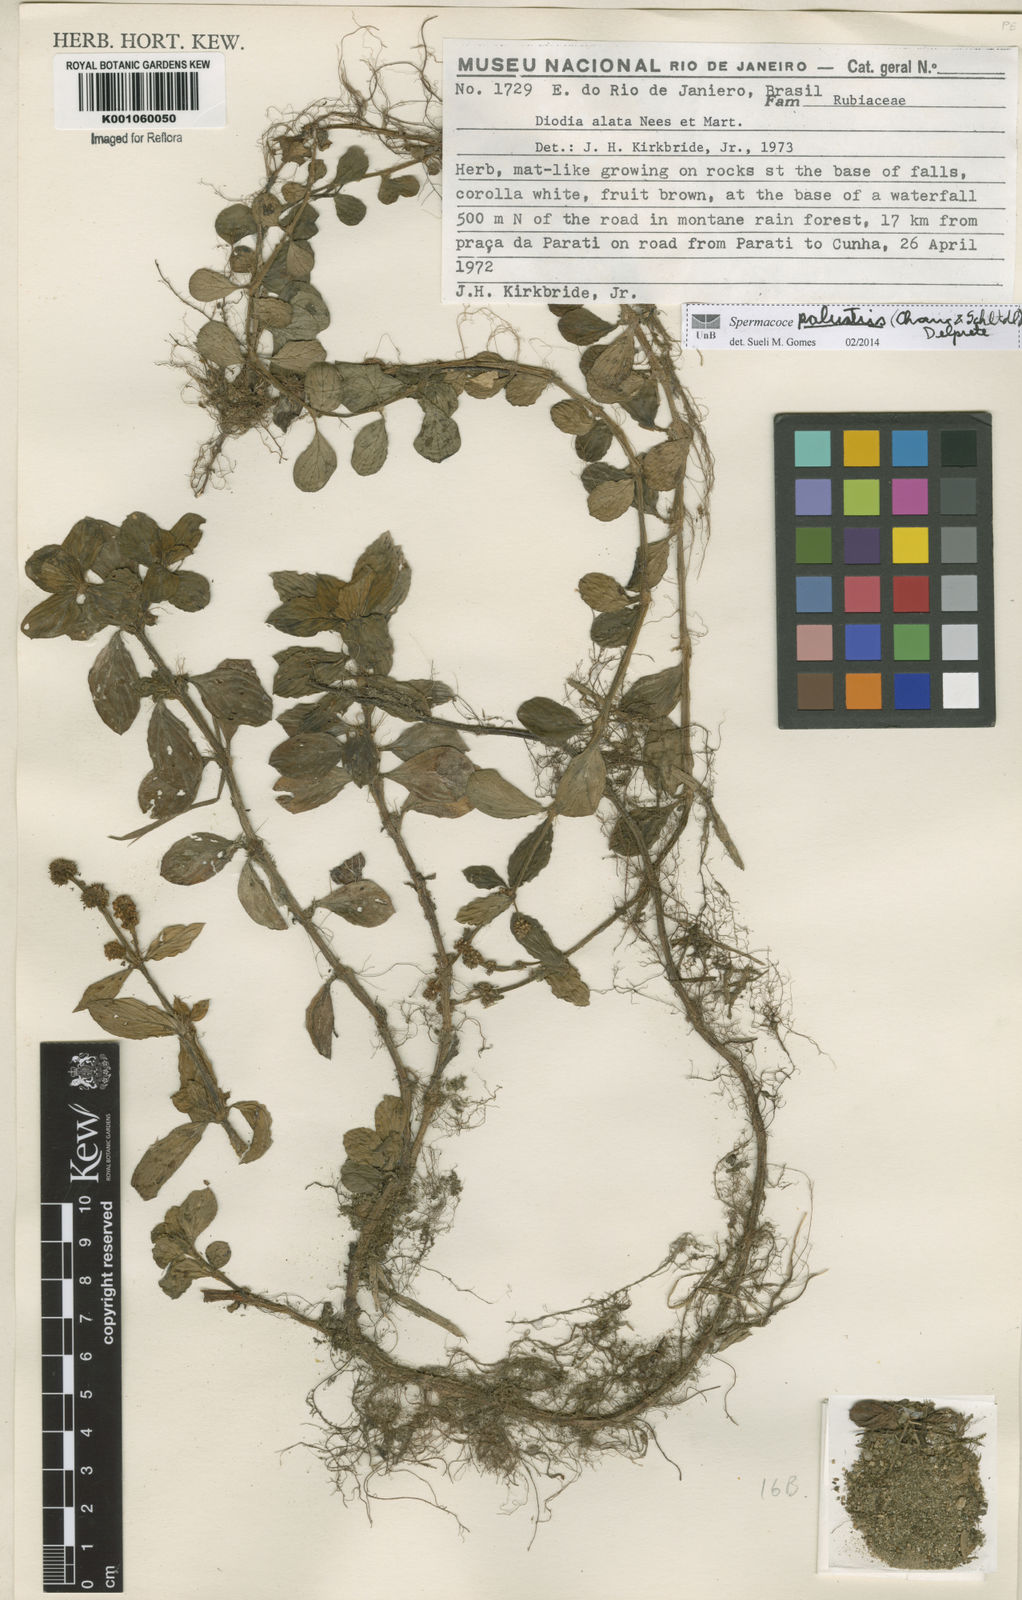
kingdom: Plantae
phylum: Tracheophyta
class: Magnoliopsida
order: Gentianales
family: Rubiaceae
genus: Galianthe
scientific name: Galianthe palustris
